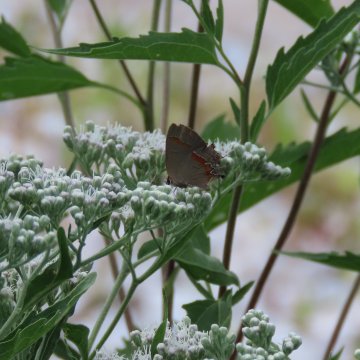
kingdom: Animalia
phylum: Arthropoda
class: Insecta
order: Lepidoptera
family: Lycaenidae
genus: Calycopis
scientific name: Calycopis cecrops
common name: Red-banded Hairstreak
